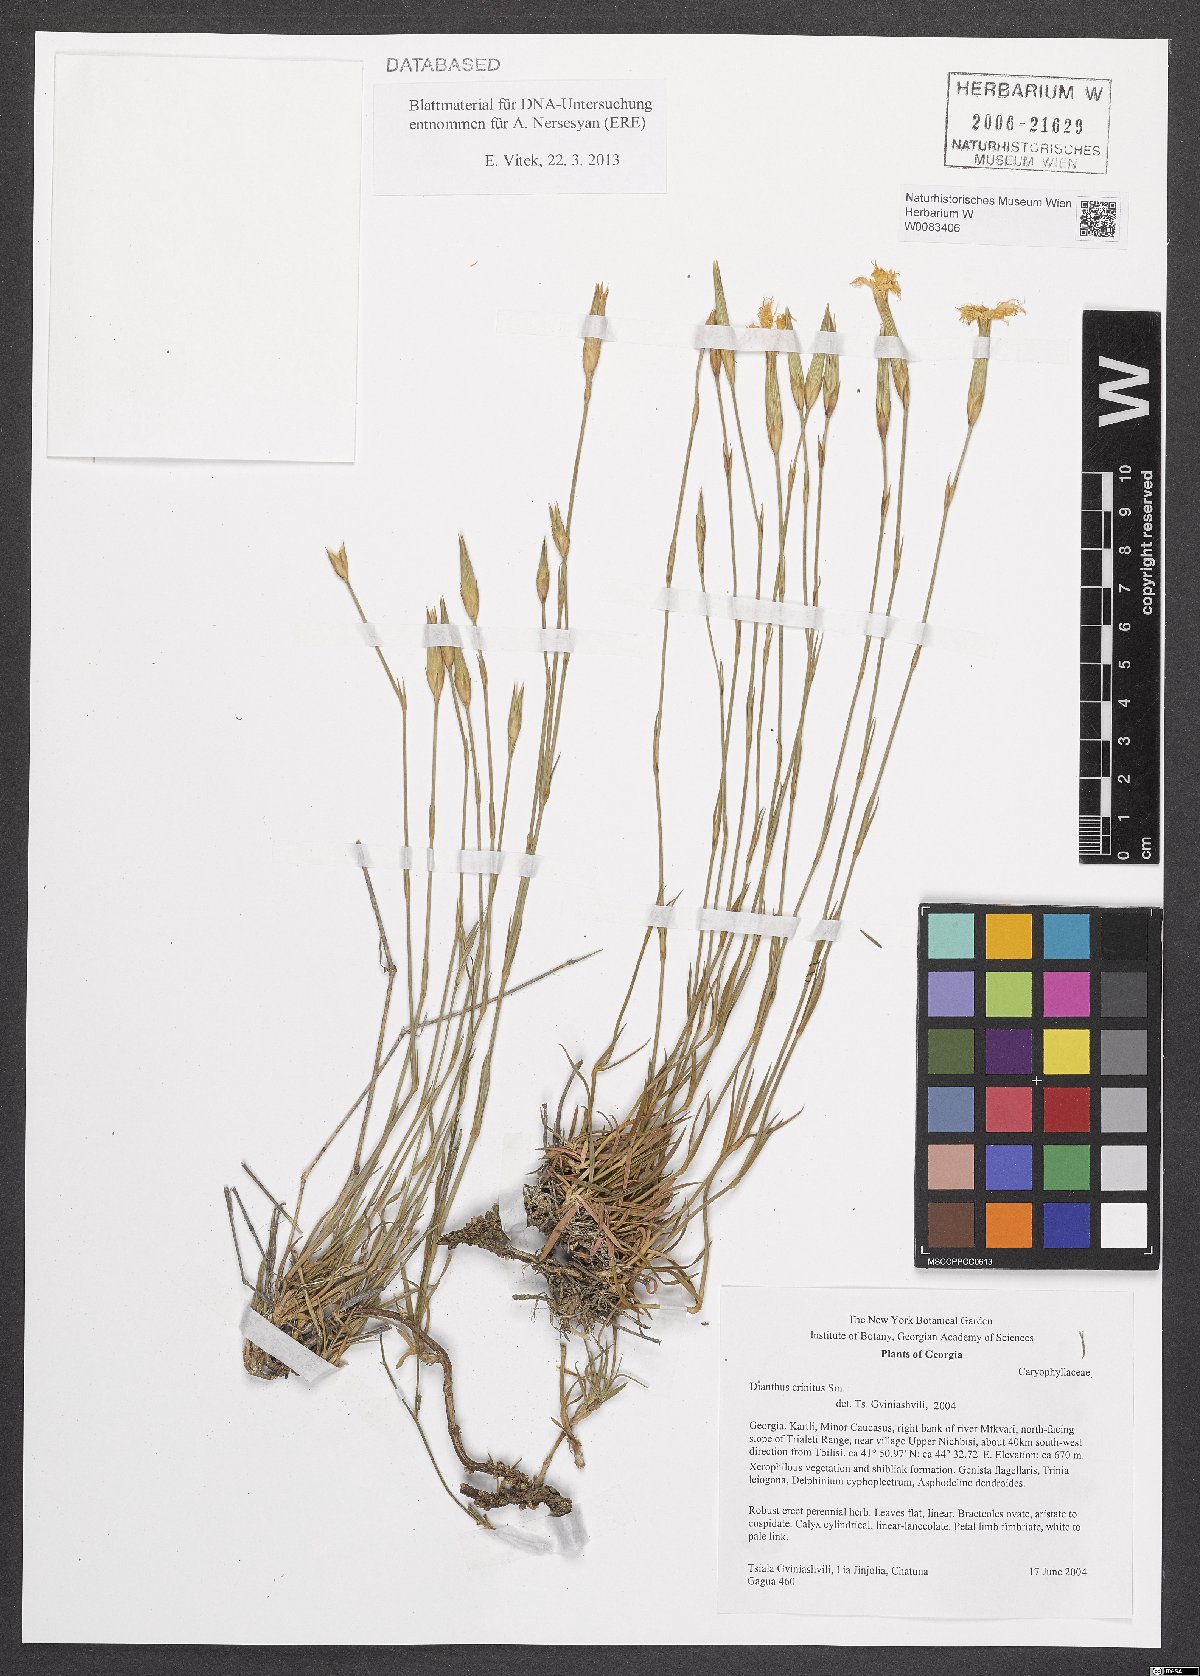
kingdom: Plantae
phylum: Tracheophyta
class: Magnoliopsida
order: Caryophyllales
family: Caryophyllaceae
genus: Dianthus
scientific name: Dianthus crinitus
